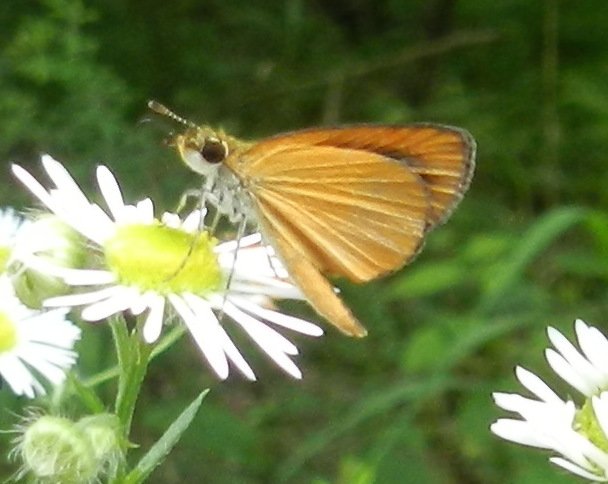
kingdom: Animalia
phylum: Arthropoda
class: Insecta
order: Lepidoptera
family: Hesperiidae
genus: Ancyloxypha
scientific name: Ancyloxypha numitor
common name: Least Skipper
